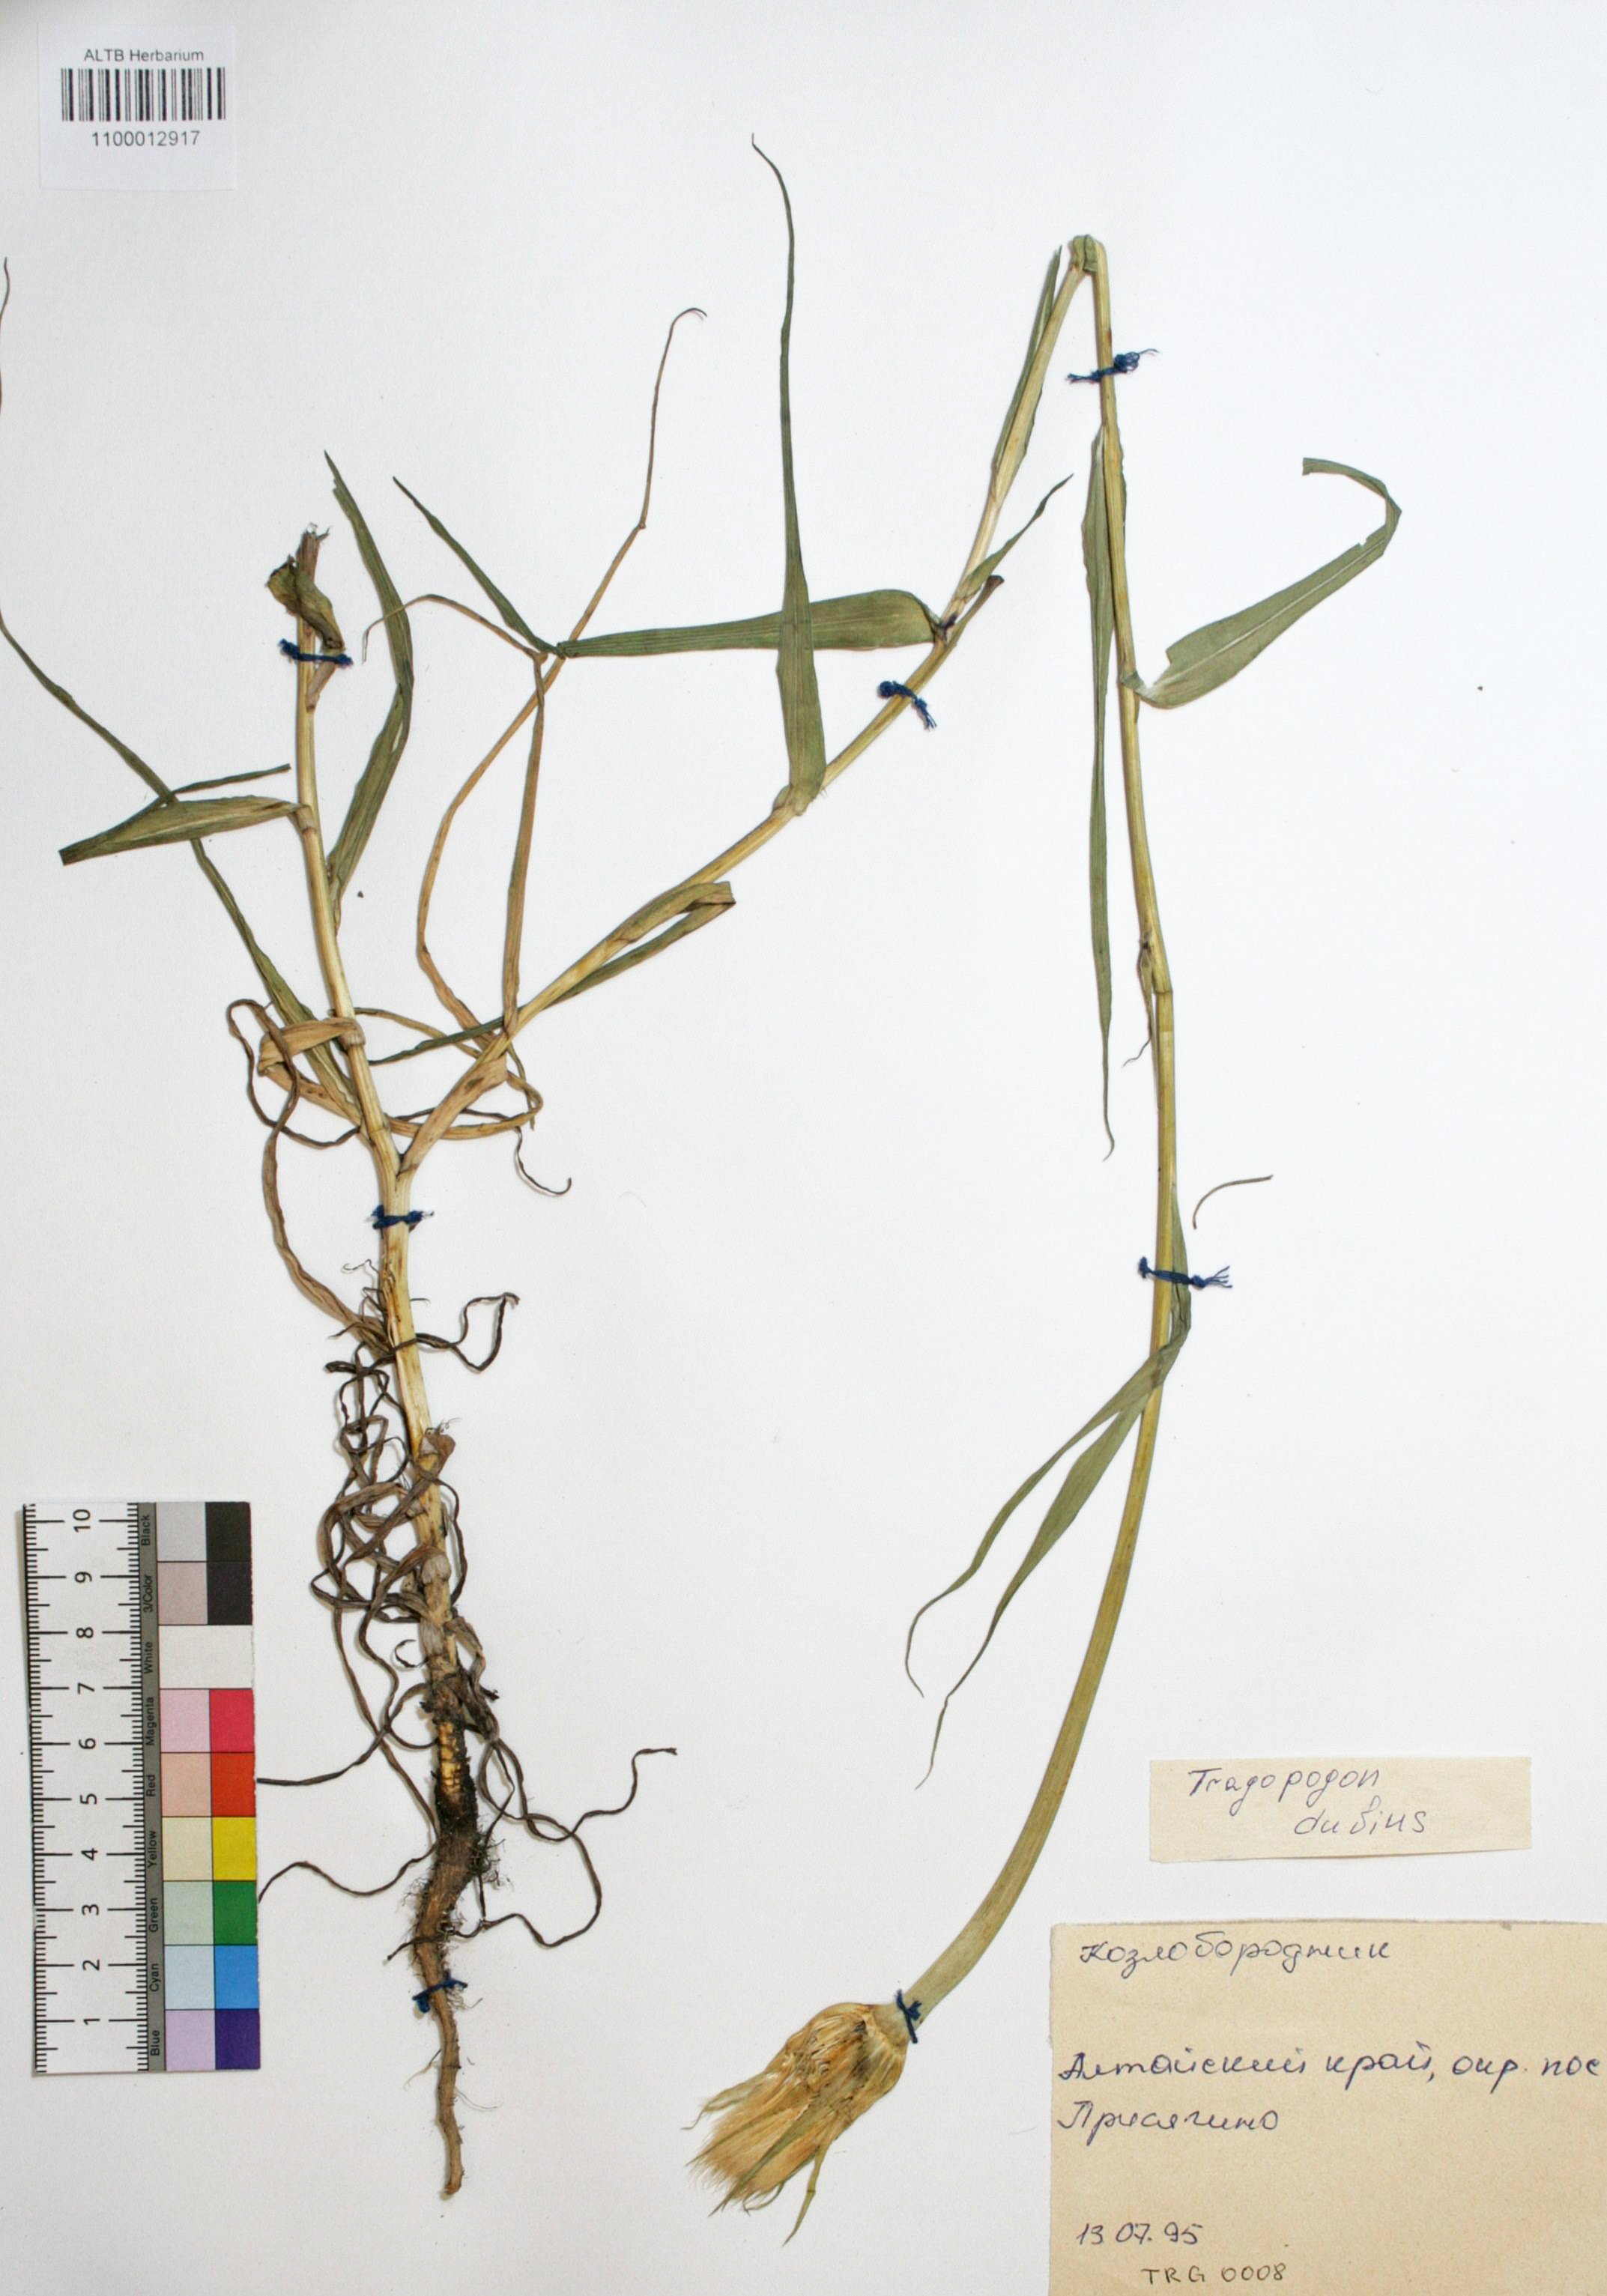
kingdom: Plantae
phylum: Tracheophyta
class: Magnoliopsida
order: Asterales
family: Asteraceae
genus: Tragopogon
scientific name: Tragopogon dubius
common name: Yellow salsify
